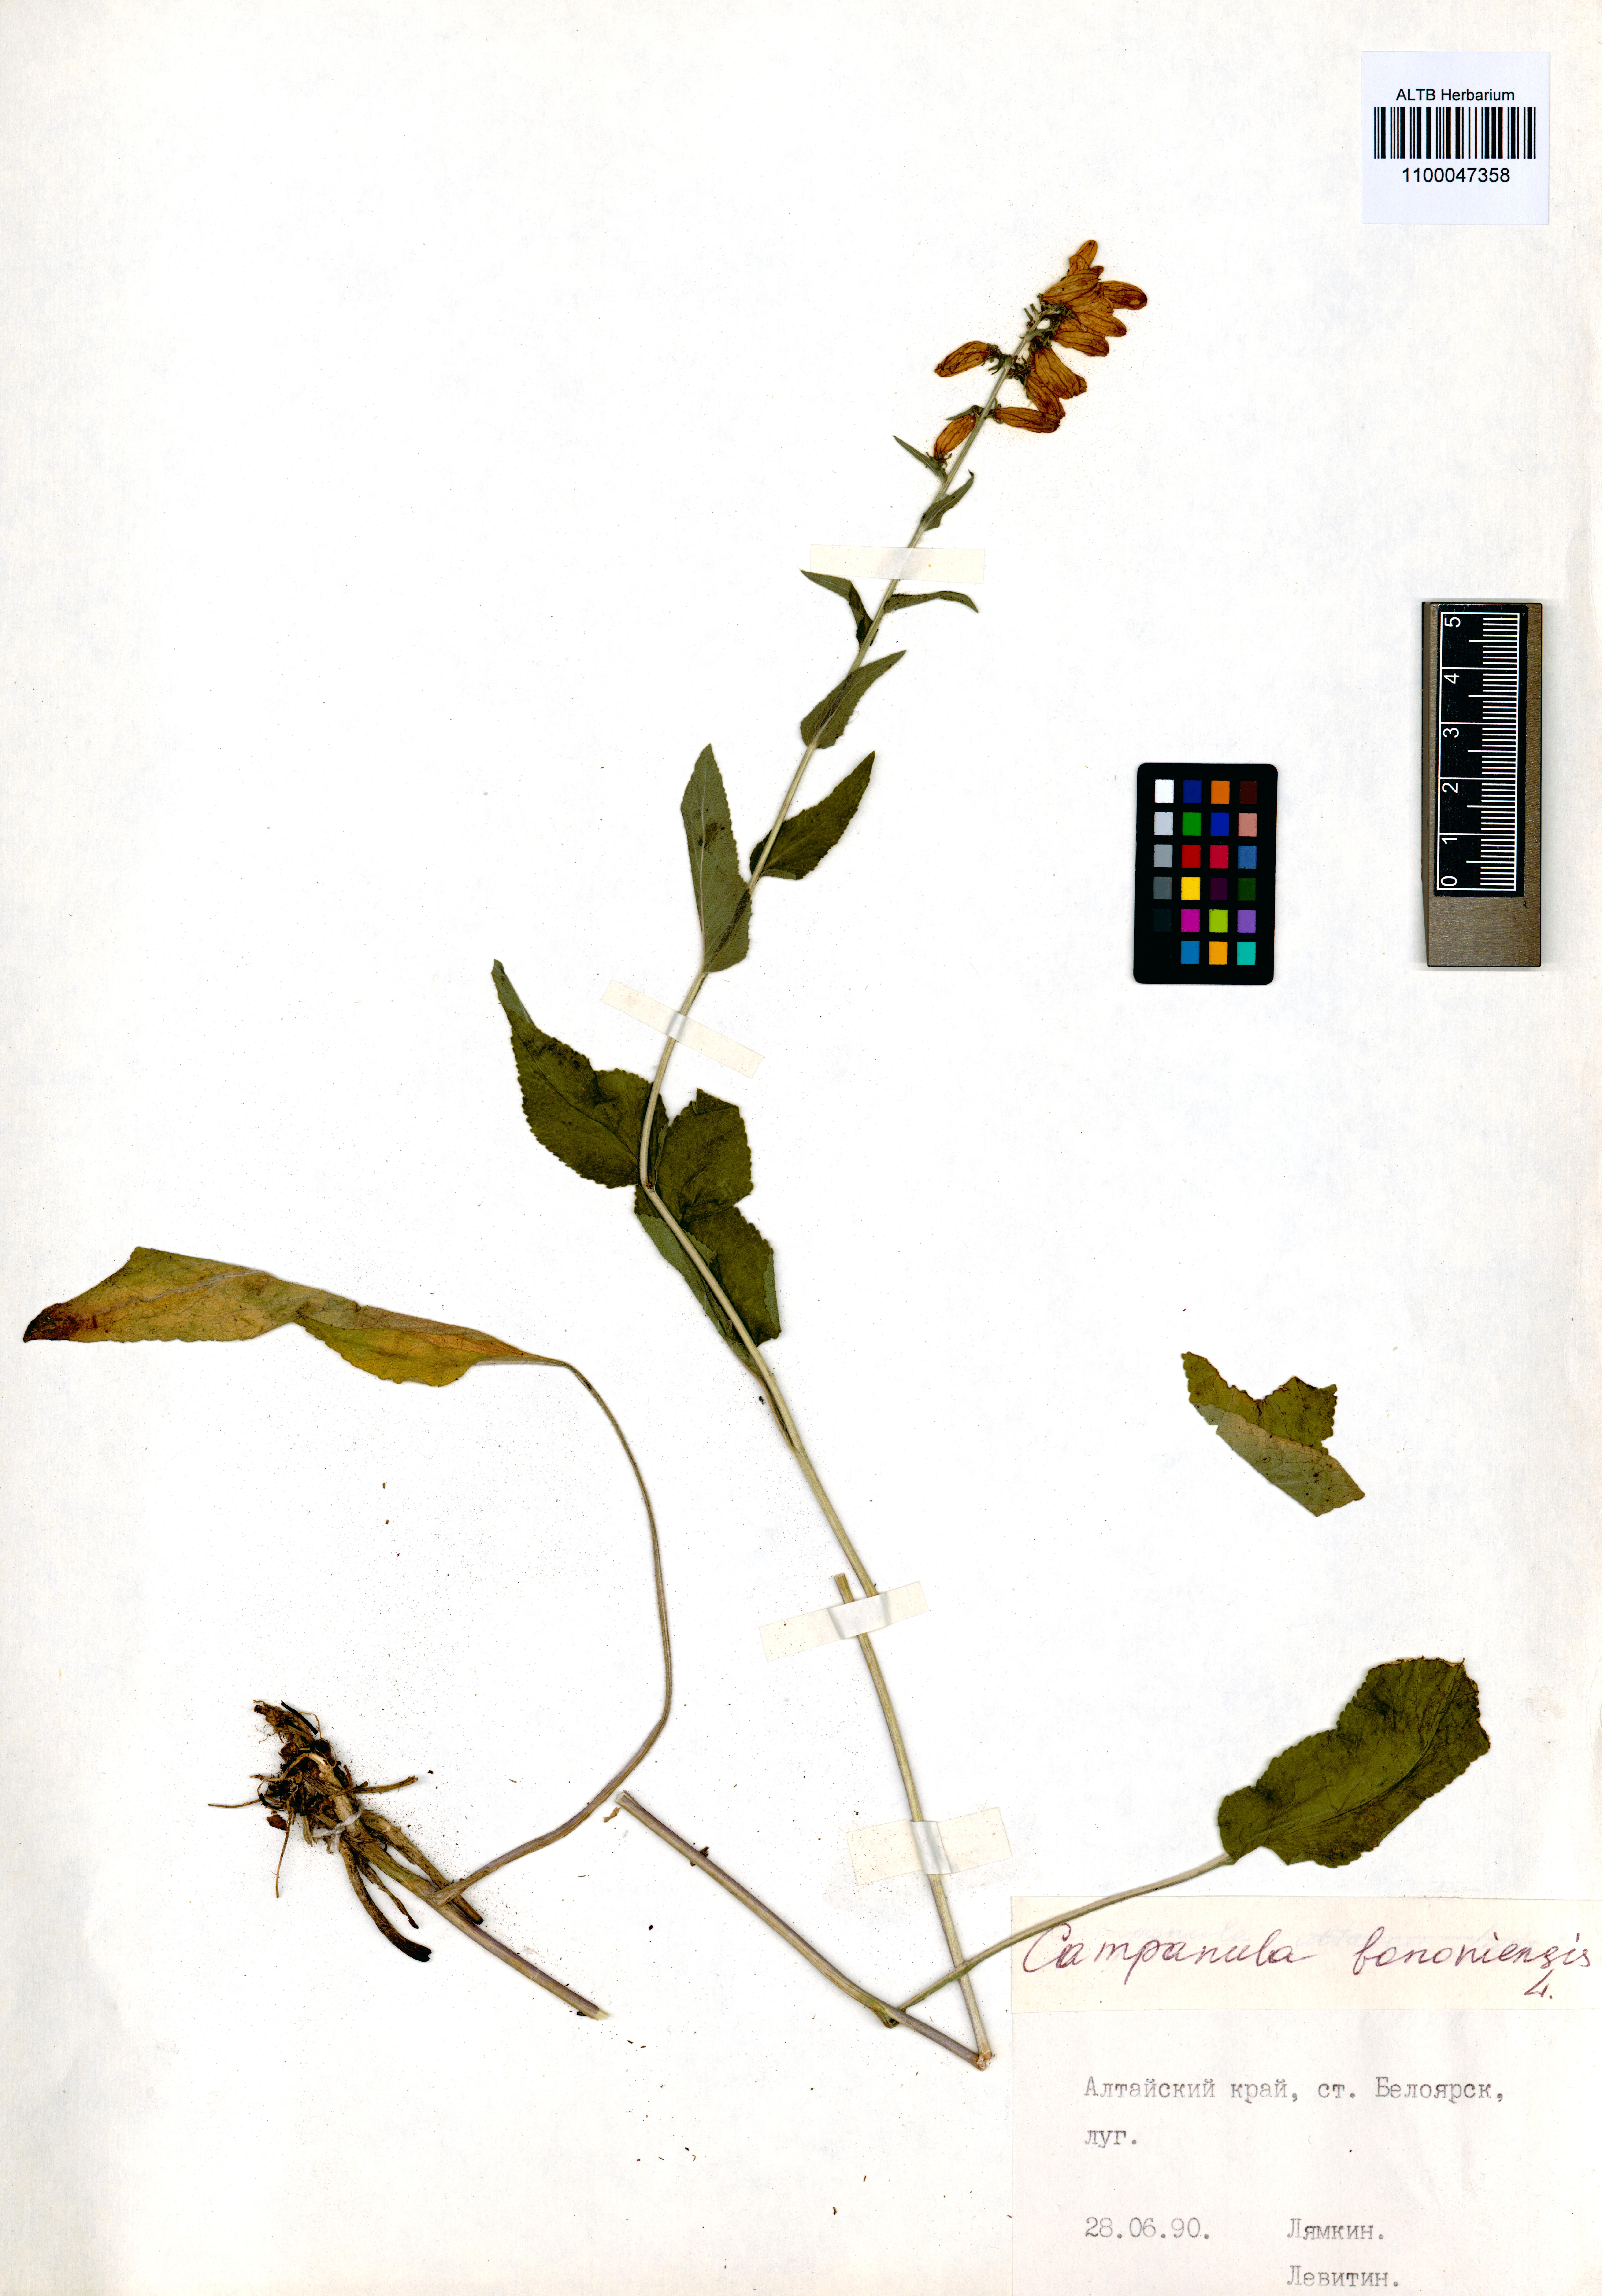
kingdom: Plantae
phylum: Tracheophyta
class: Magnoliopsida
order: Asterales
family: Campanulaceae
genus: Campanula
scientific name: Campanula bononiensis
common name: Pale bellflower
